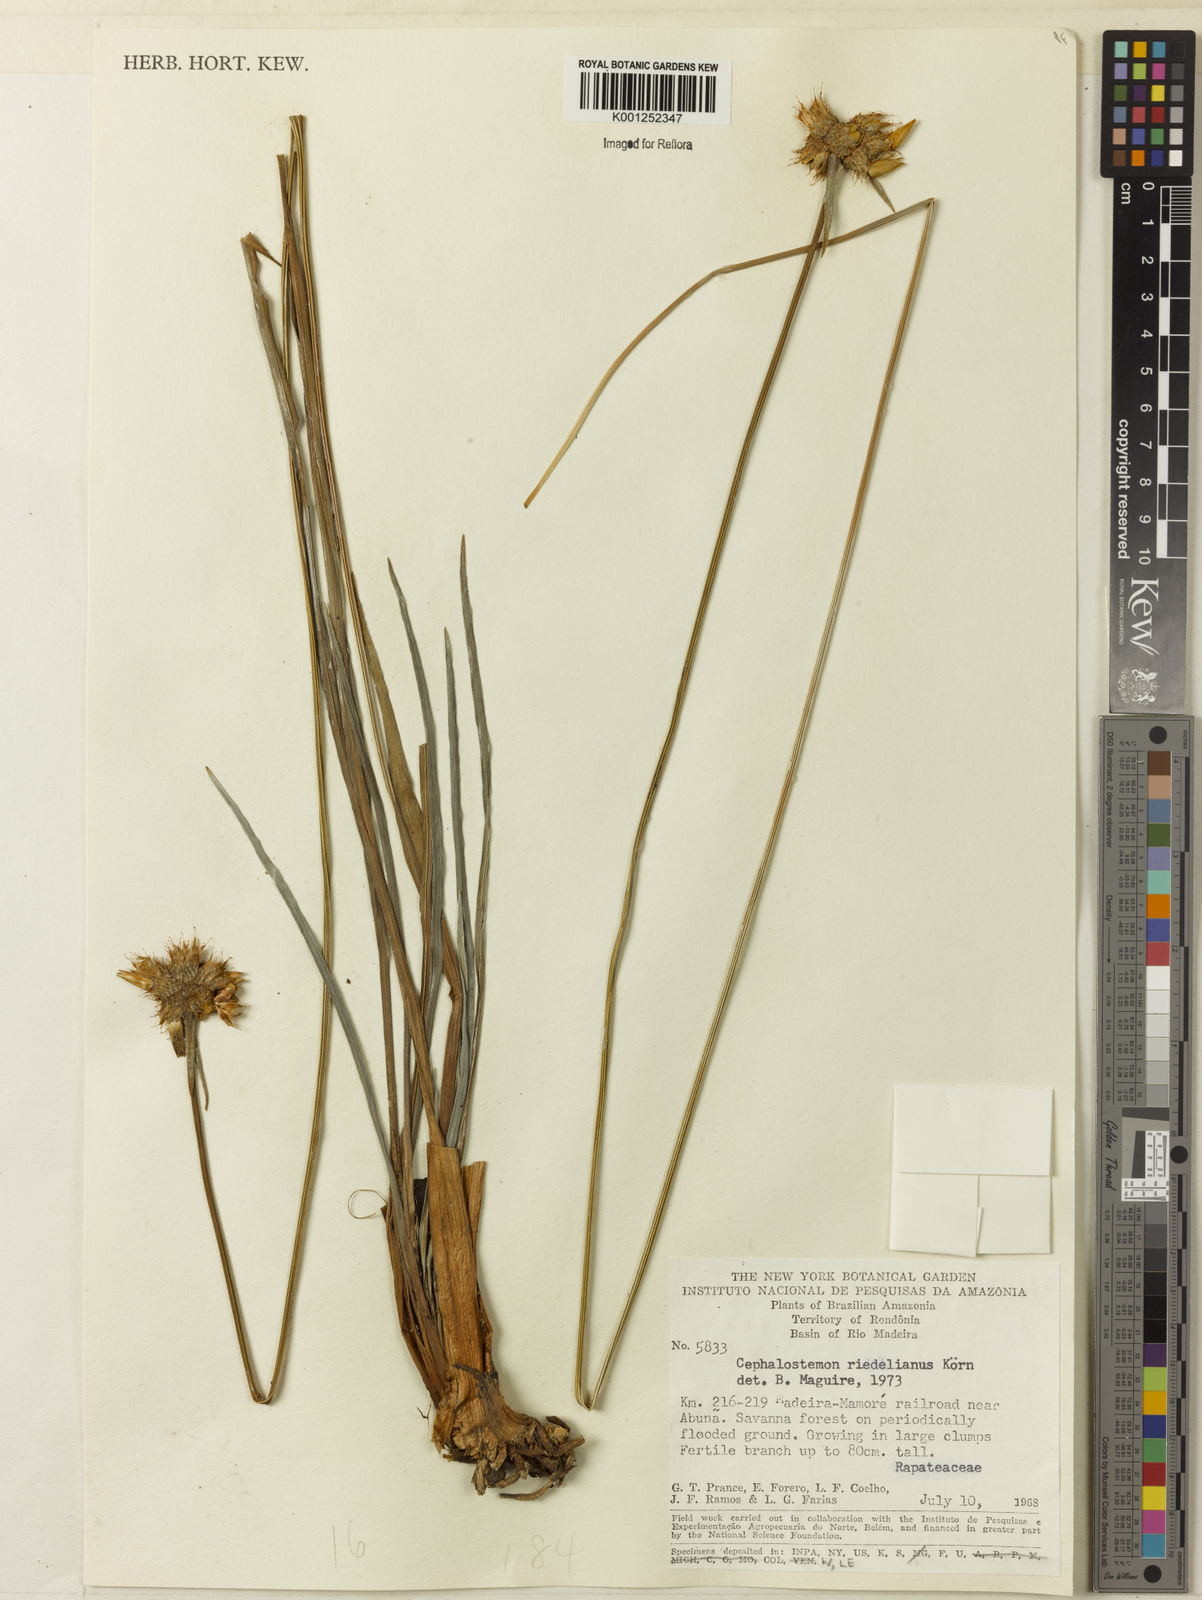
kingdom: Plantae
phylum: Tracheophyta
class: Liliopsida
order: Poales
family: Rapateaceae
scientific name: Rapateaceae
